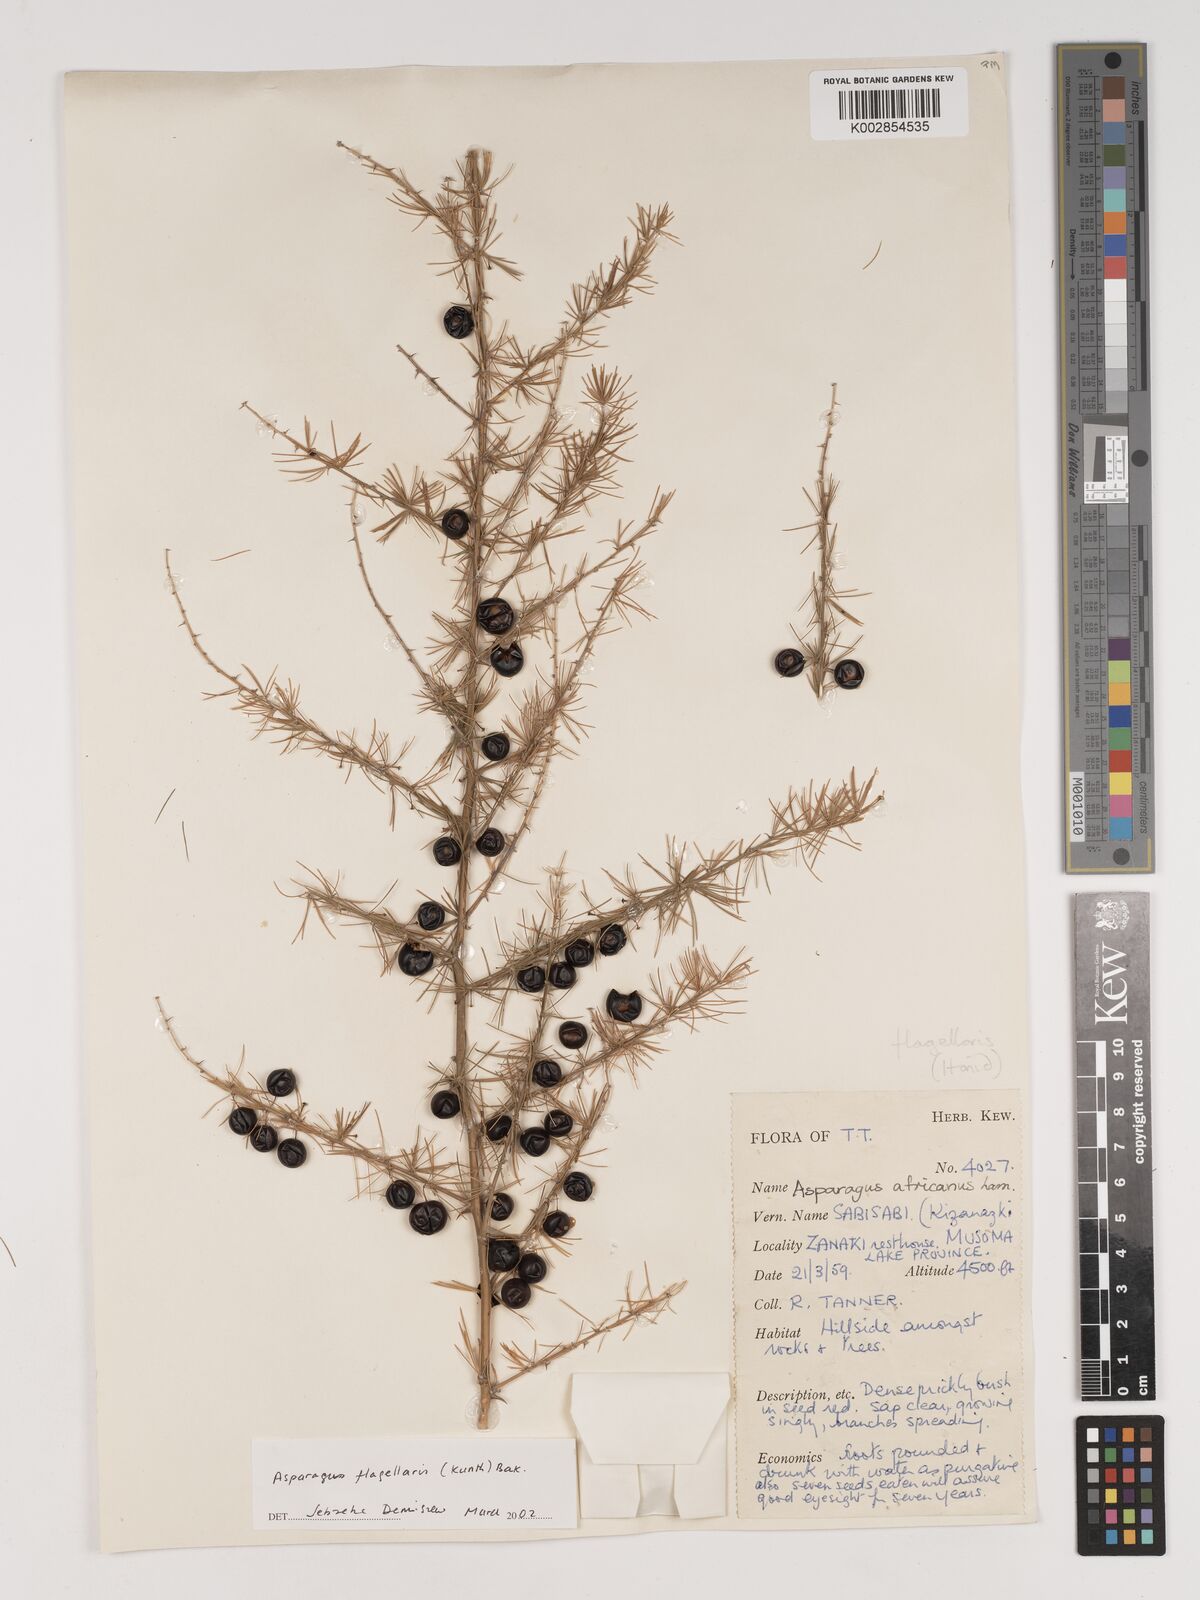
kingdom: Plantae
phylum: Tracheophyta
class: Liliopsida
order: Asparagales
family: Asparagaceae
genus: Asparagus
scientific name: Asparagus flagellaris
